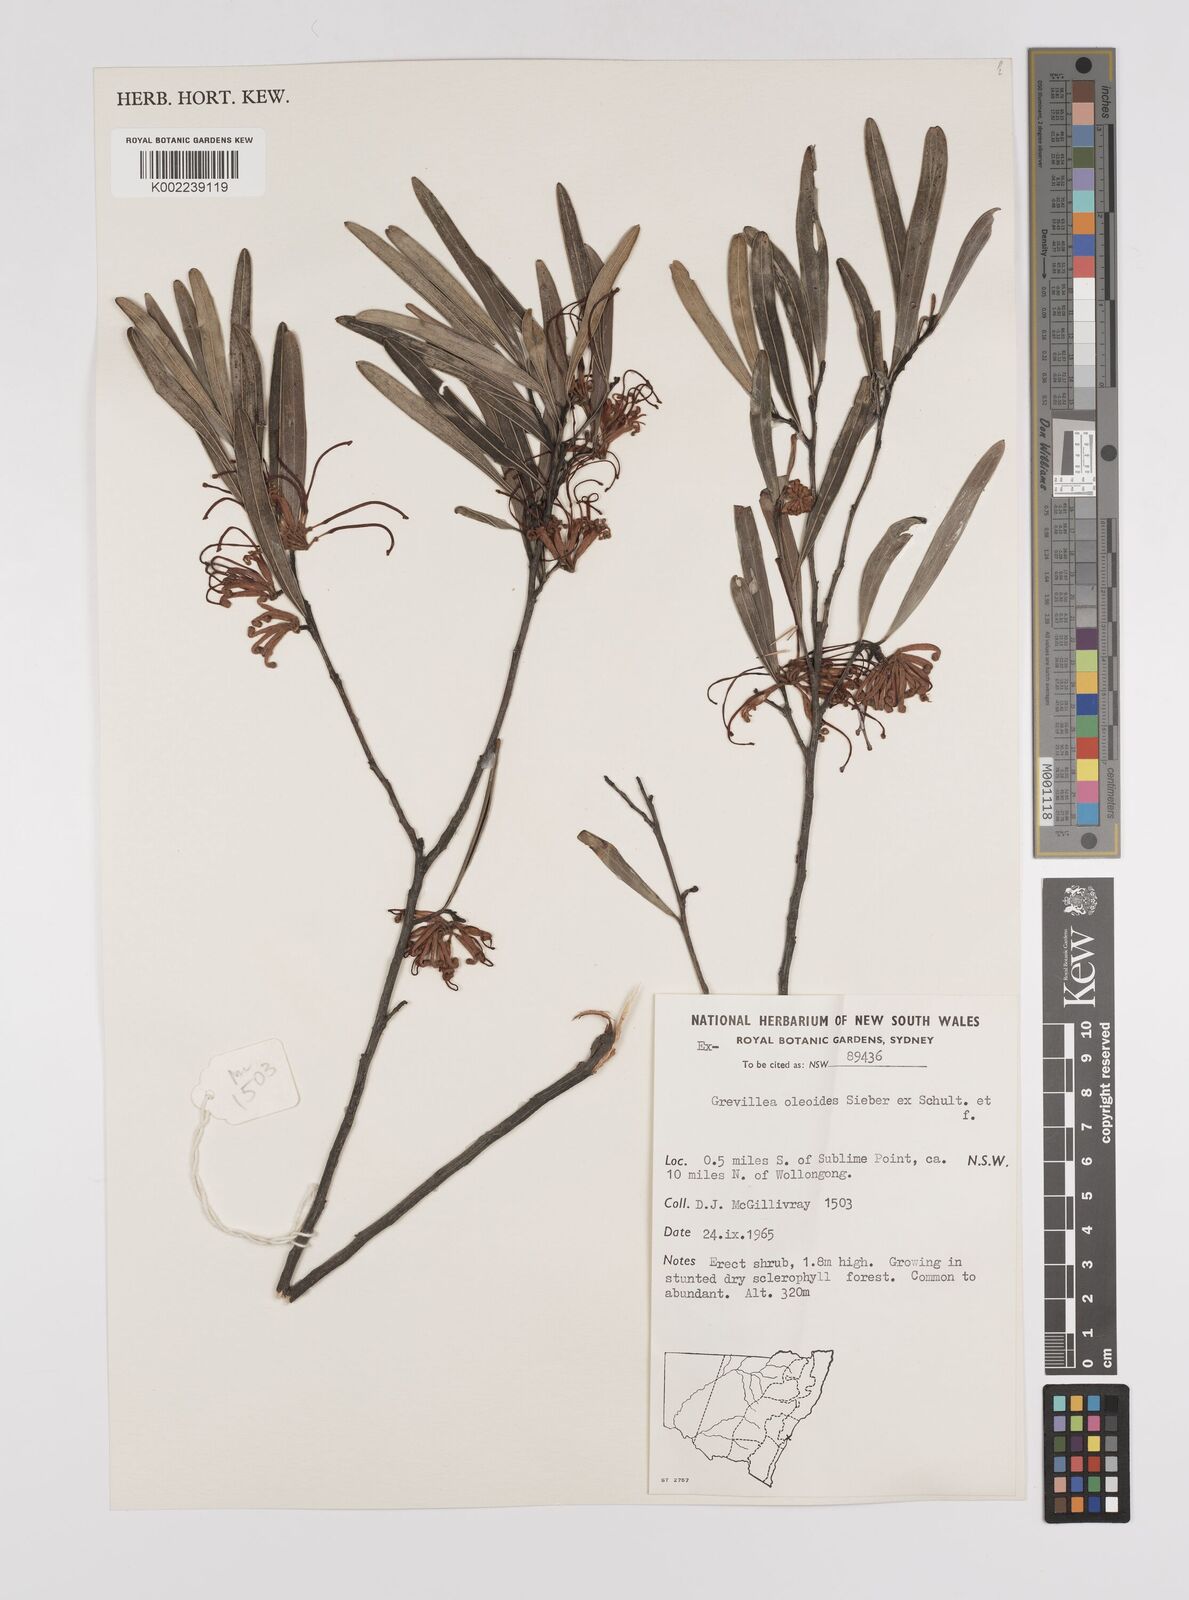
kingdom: Plantae
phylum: Tracheophyta
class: Magnoliopsida
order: Proteales
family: Proteaceae
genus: Grevillea
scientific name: Grevillea oleoides
